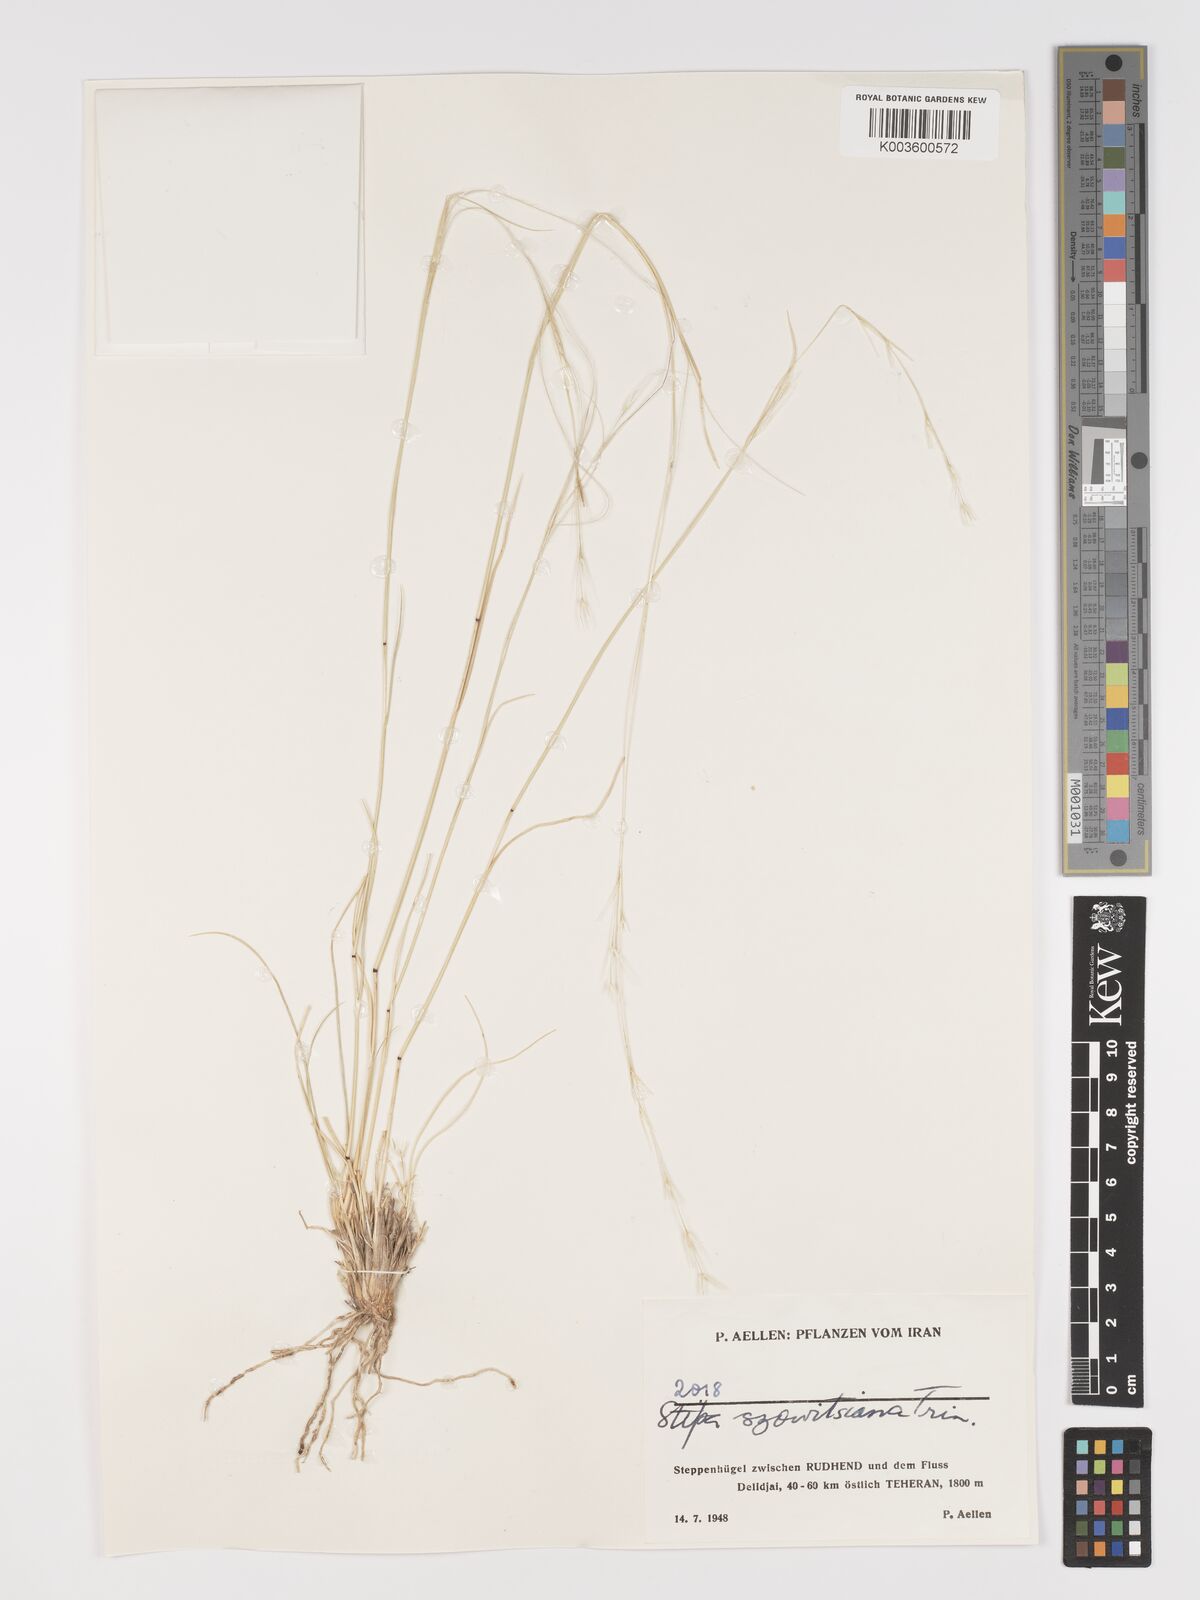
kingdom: Plantae
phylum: Tracheophyta
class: Liliopsida
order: Poales
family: Poaceae
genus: Stipa
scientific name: Stipa barbata
